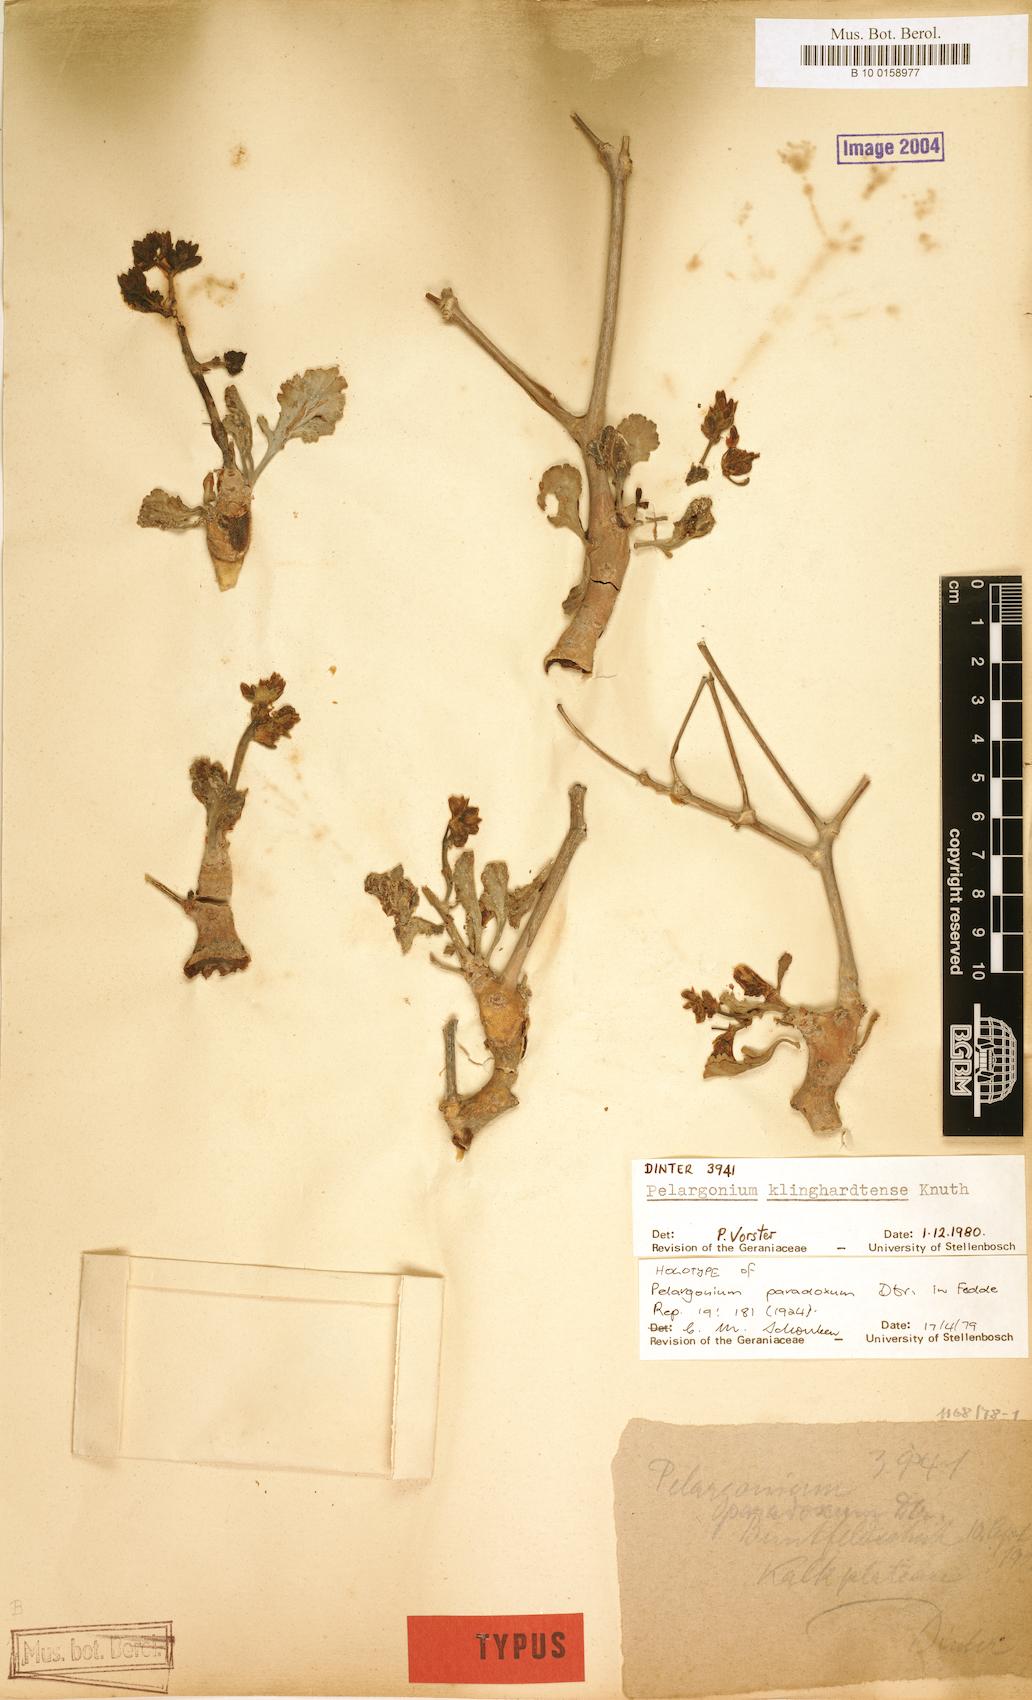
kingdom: Plantae
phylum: Tracheophyta
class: Magnoliopsida
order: Geraniales
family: Geraniaceae
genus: Pelargonium
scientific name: Pelargonium klinghardtense
